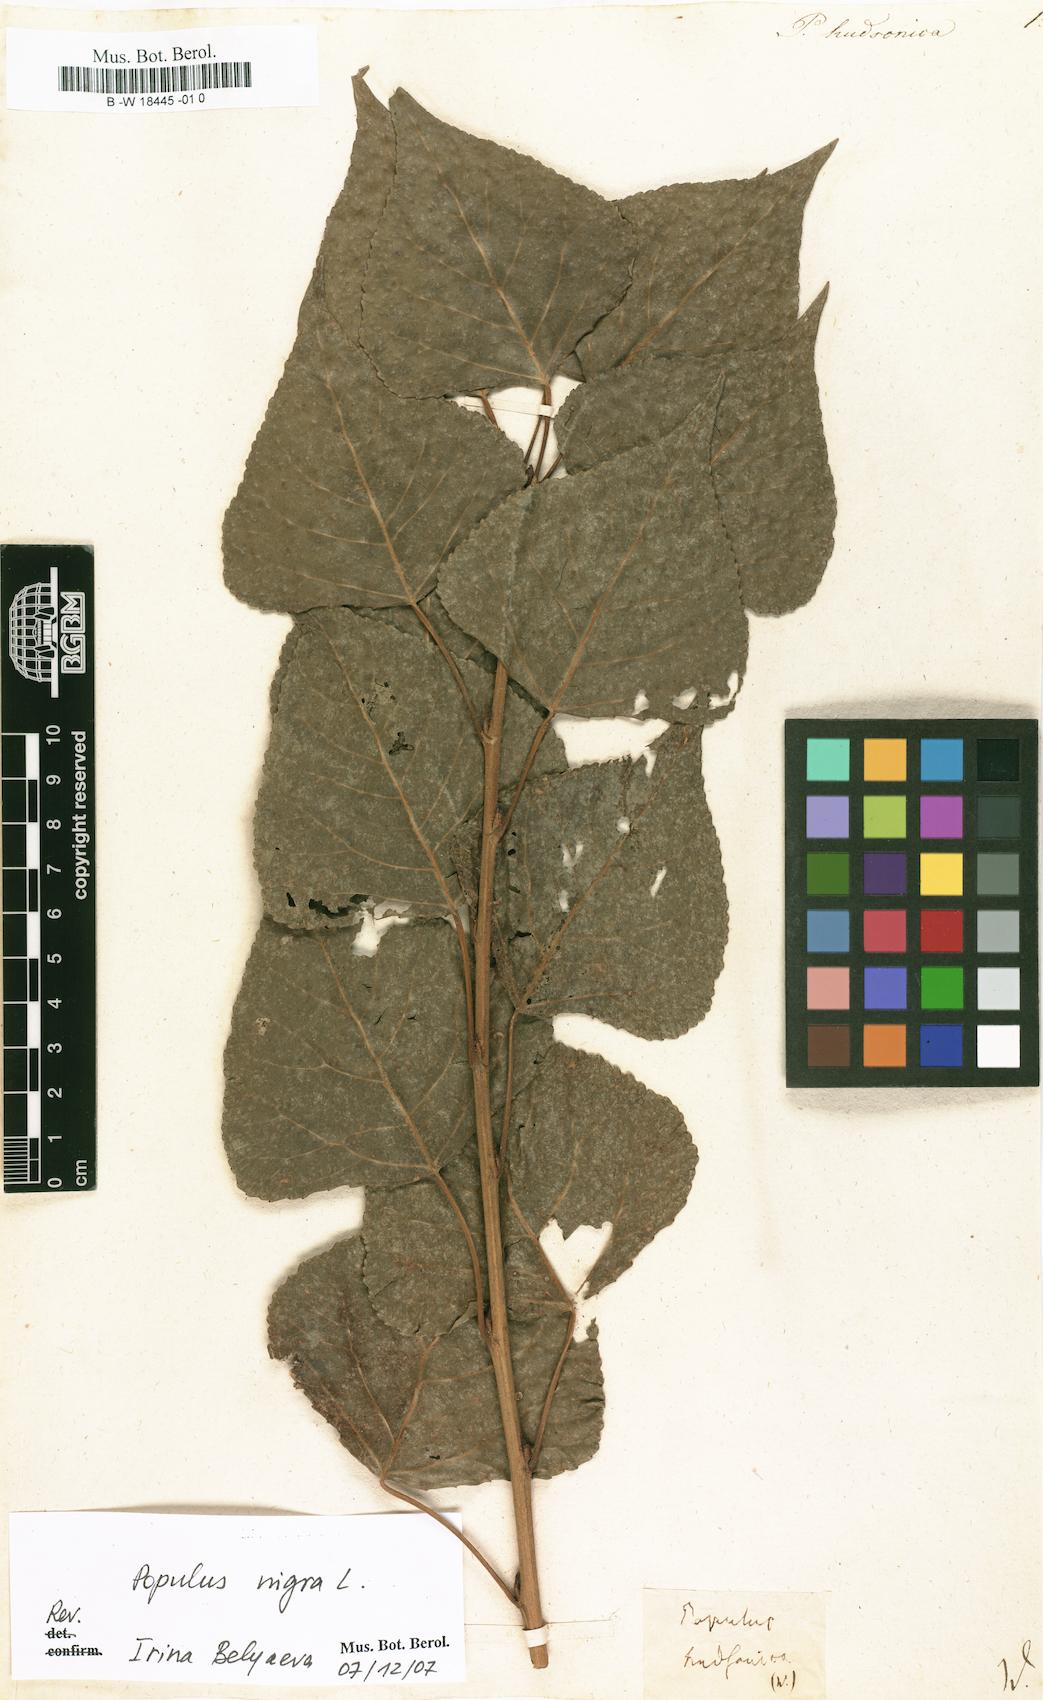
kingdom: Plantae
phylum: Tracheophyta
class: Magnoliopsida
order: Malpighiales
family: Salicaceae
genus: Populus
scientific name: Populus nigra
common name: Black poplar
